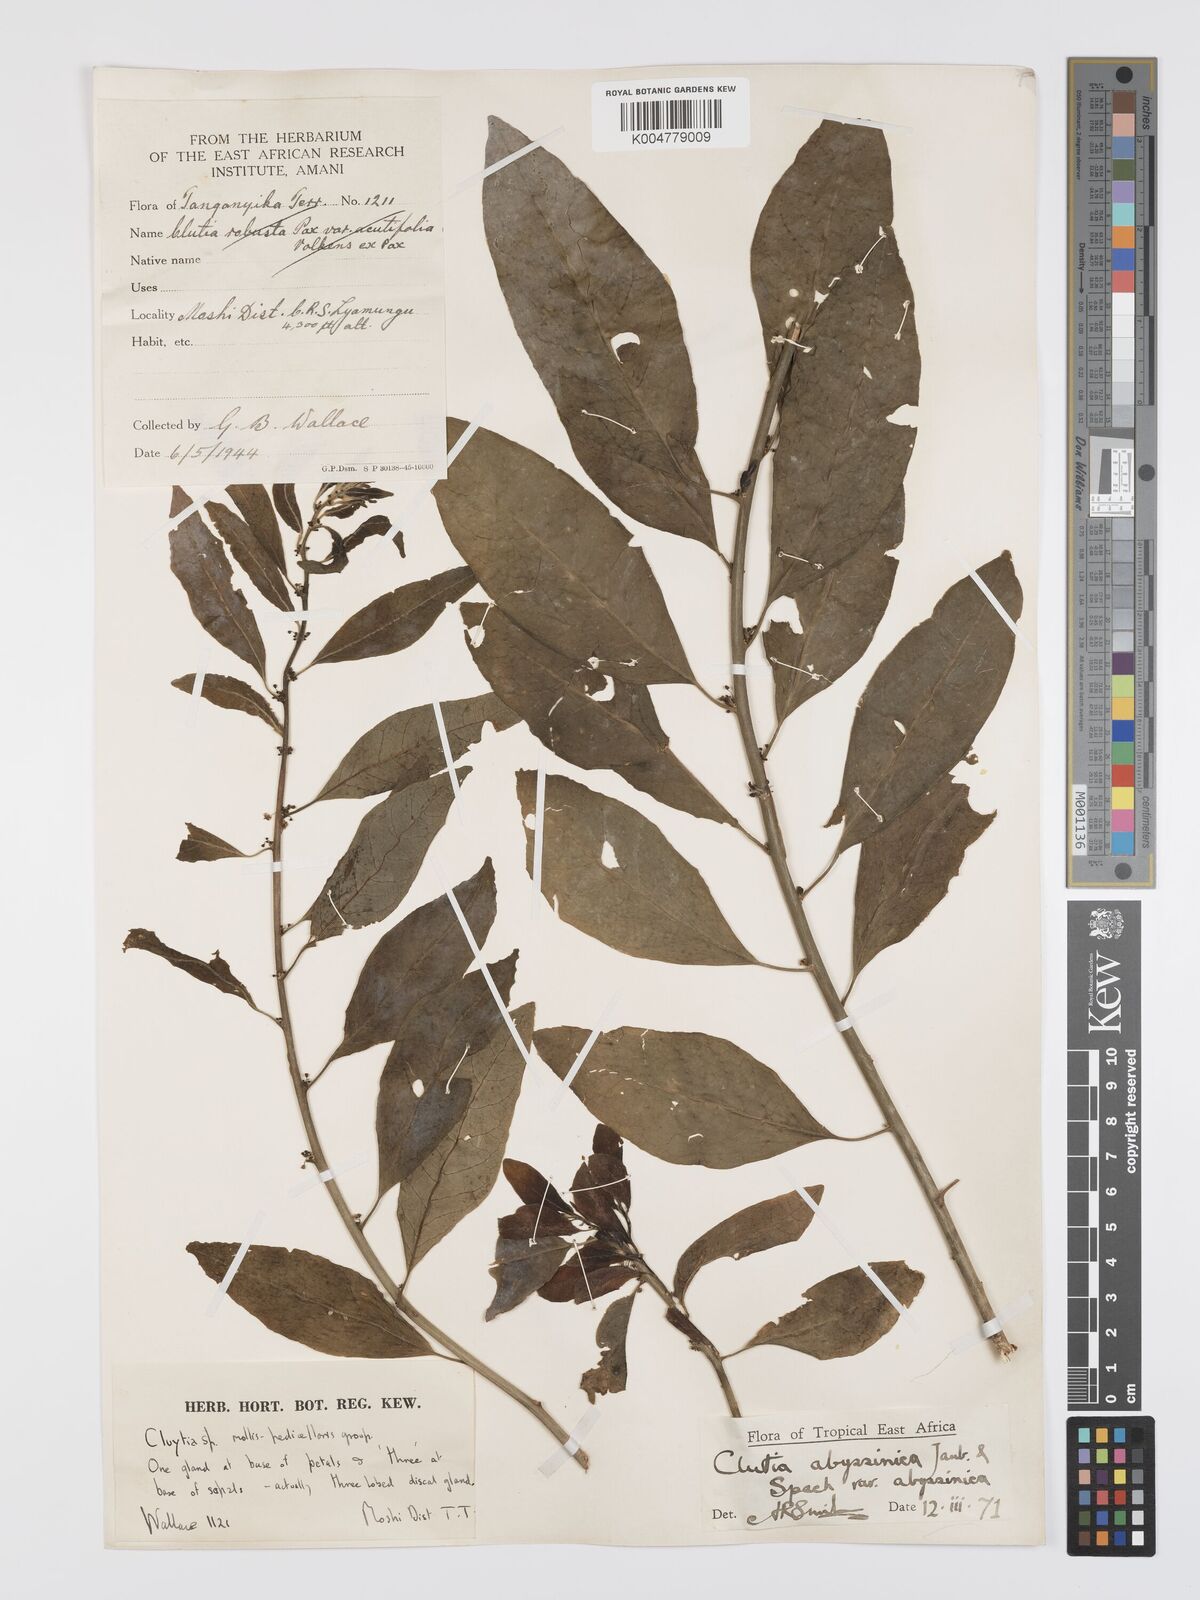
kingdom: Plantae
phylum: Tracheophyta
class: Magnoliopsida
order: Malpighiales
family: Peraceae
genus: Clutia
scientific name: Clutia abyssinica
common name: Large lightning bush
